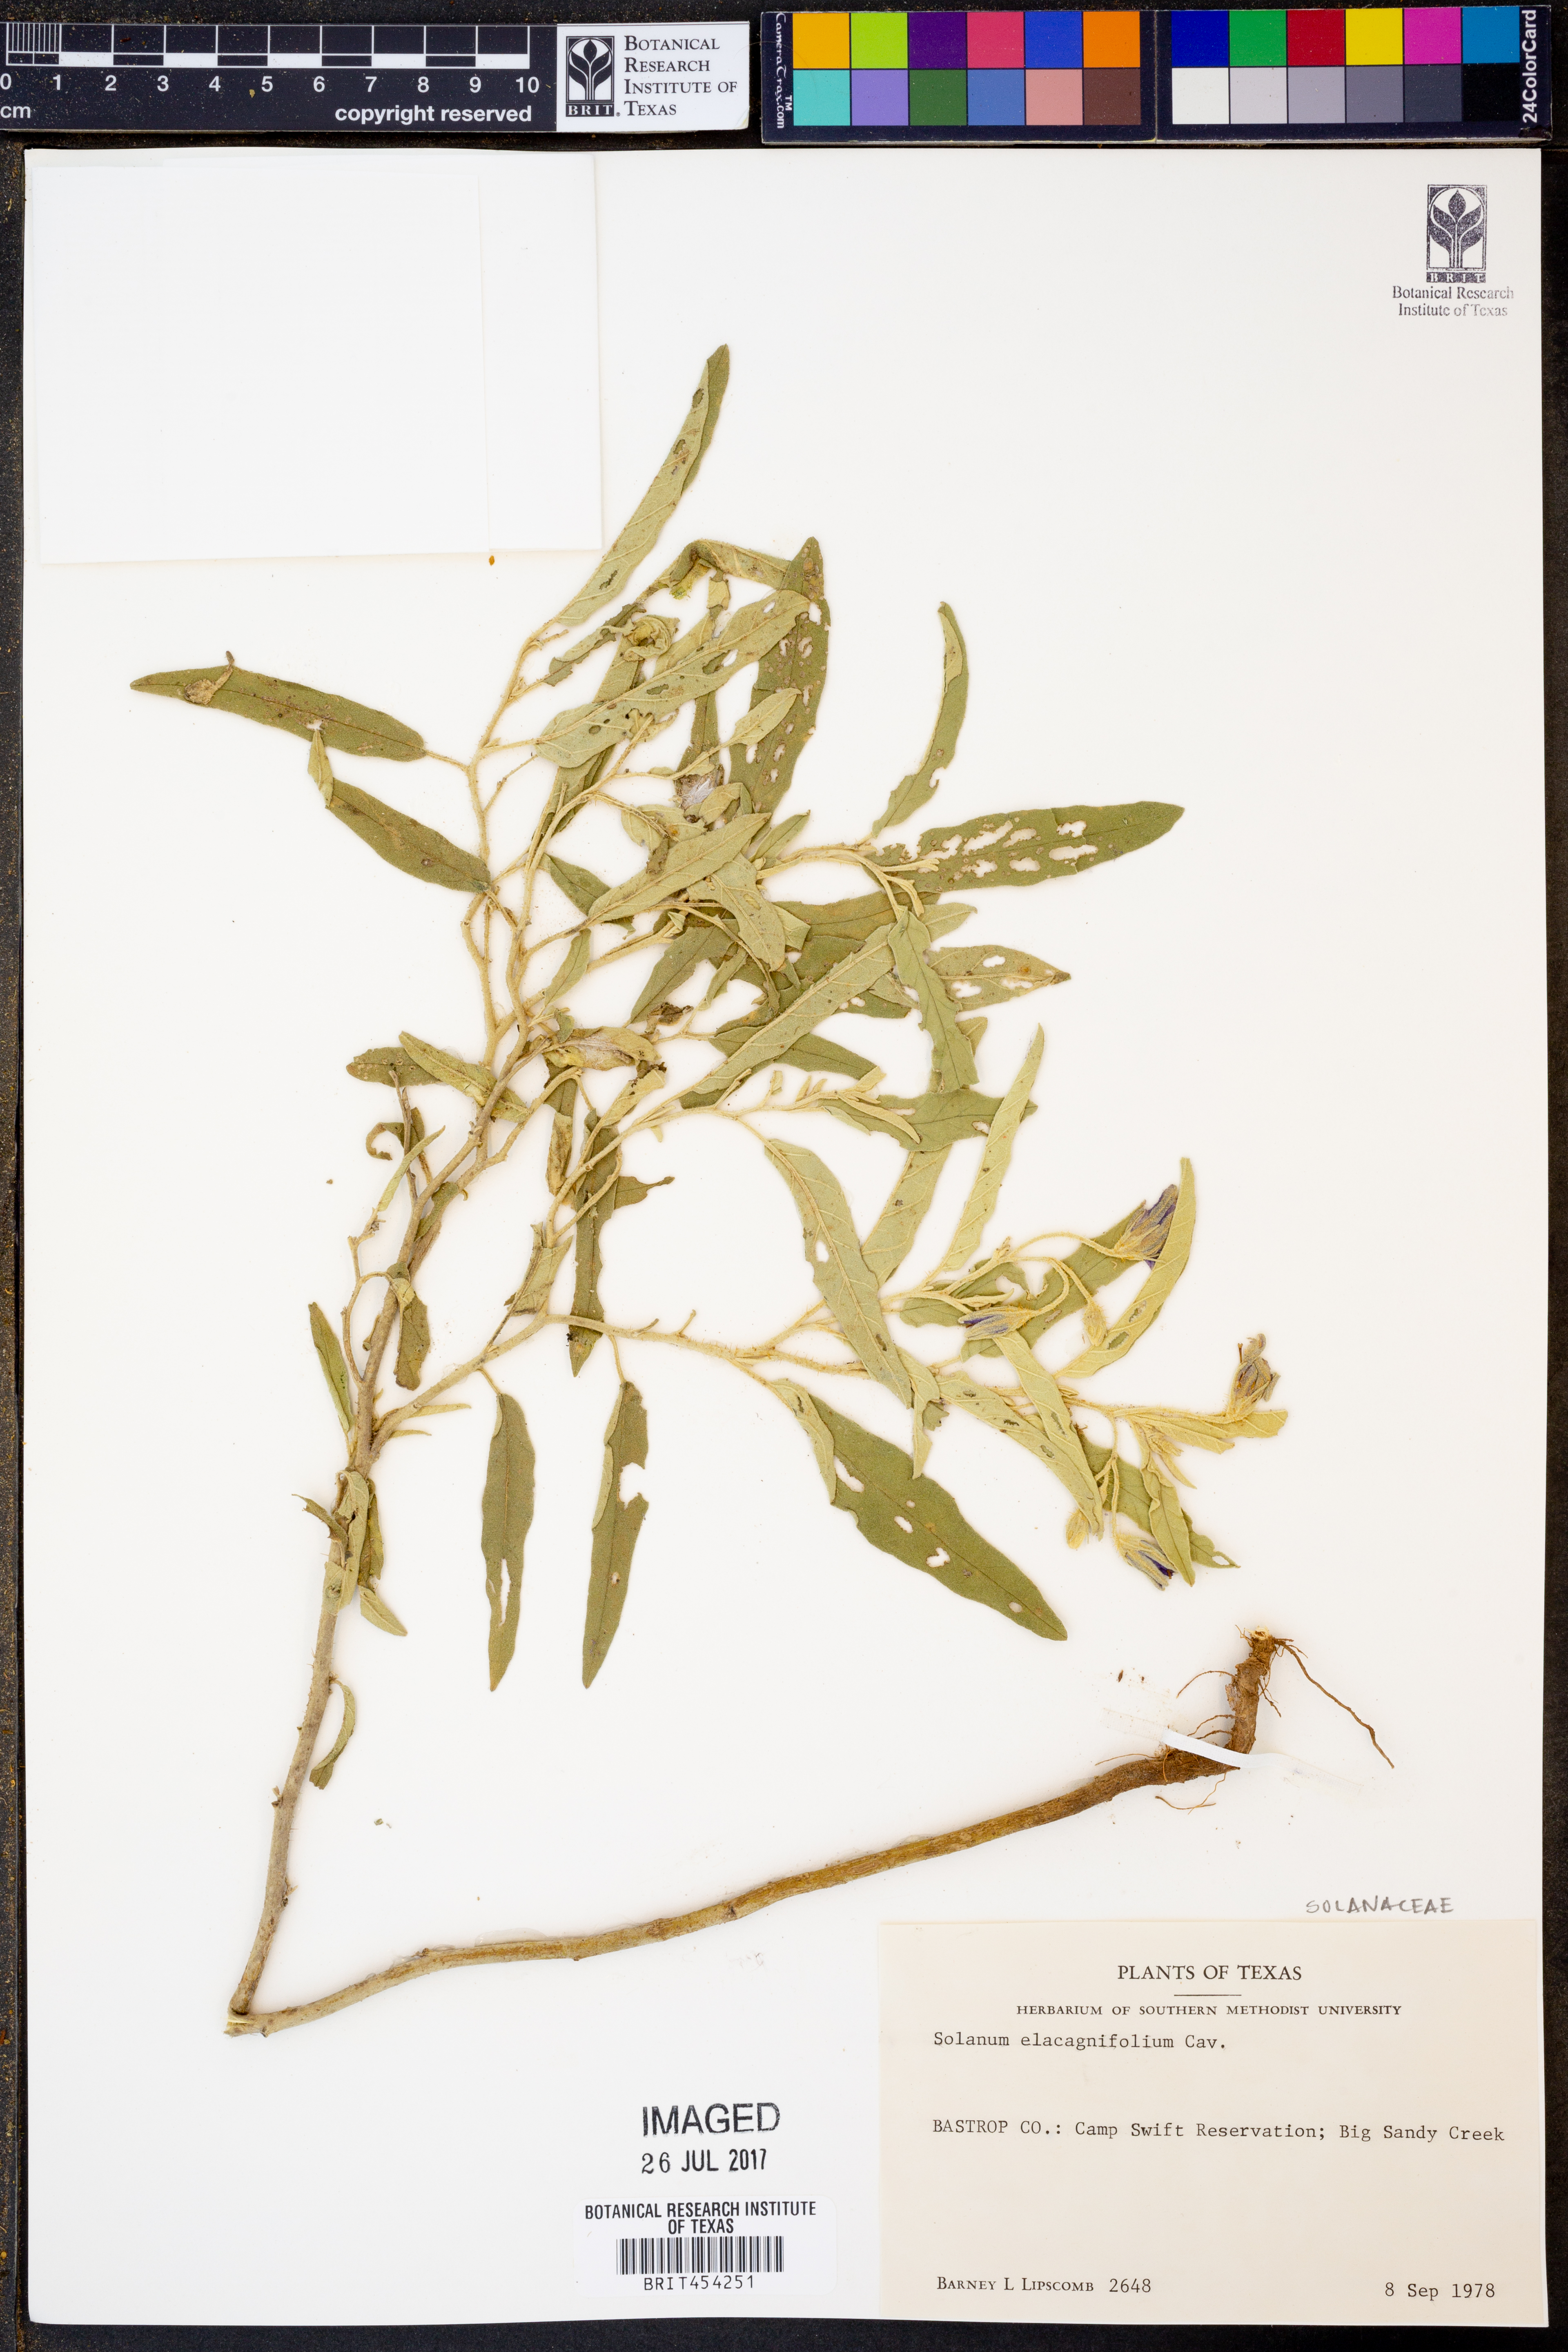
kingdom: Plantae
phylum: Tracheophyta
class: Magnoliopsida
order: Solanales
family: Solanaceae
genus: Solanum
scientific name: Solanum elaeagnifolium
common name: Silverleaf nightshade
